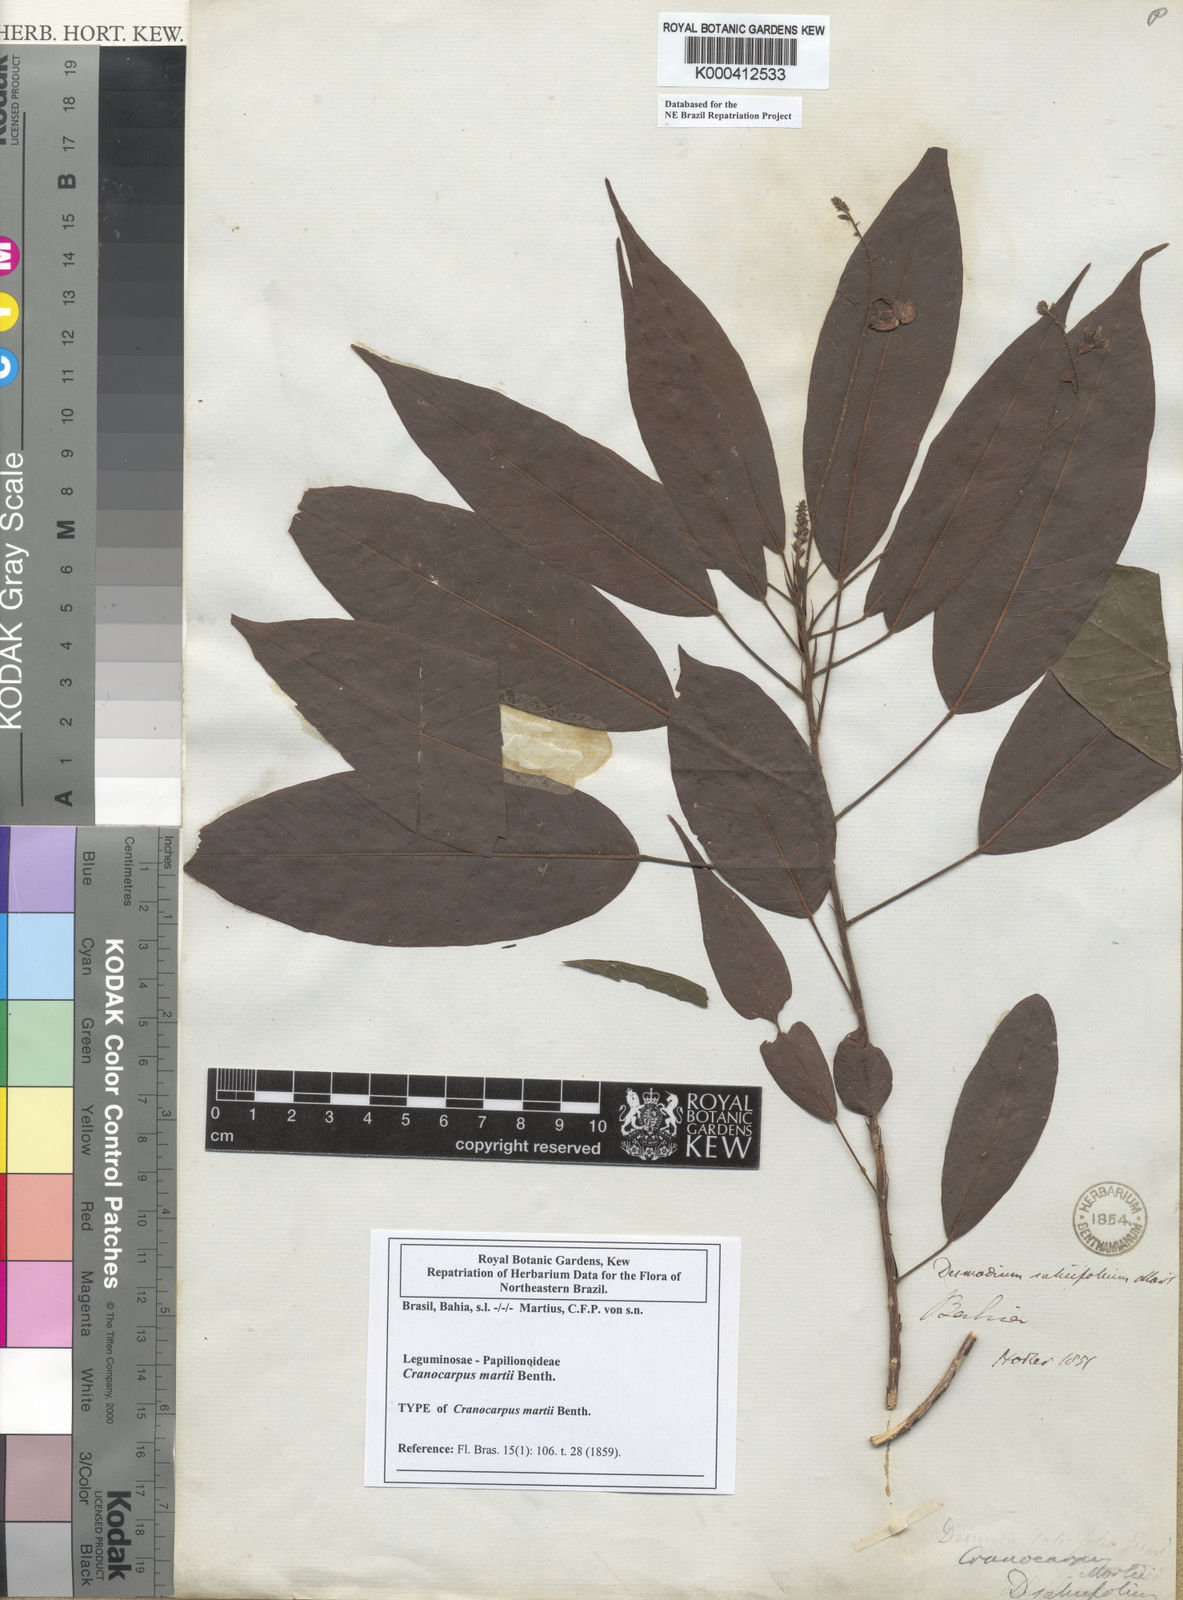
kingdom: Plantae
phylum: Tracheophyta
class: Magnoliopsida
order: Fabales
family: Fabaceae
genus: Cranocarpus
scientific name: Cranocarpus martii
